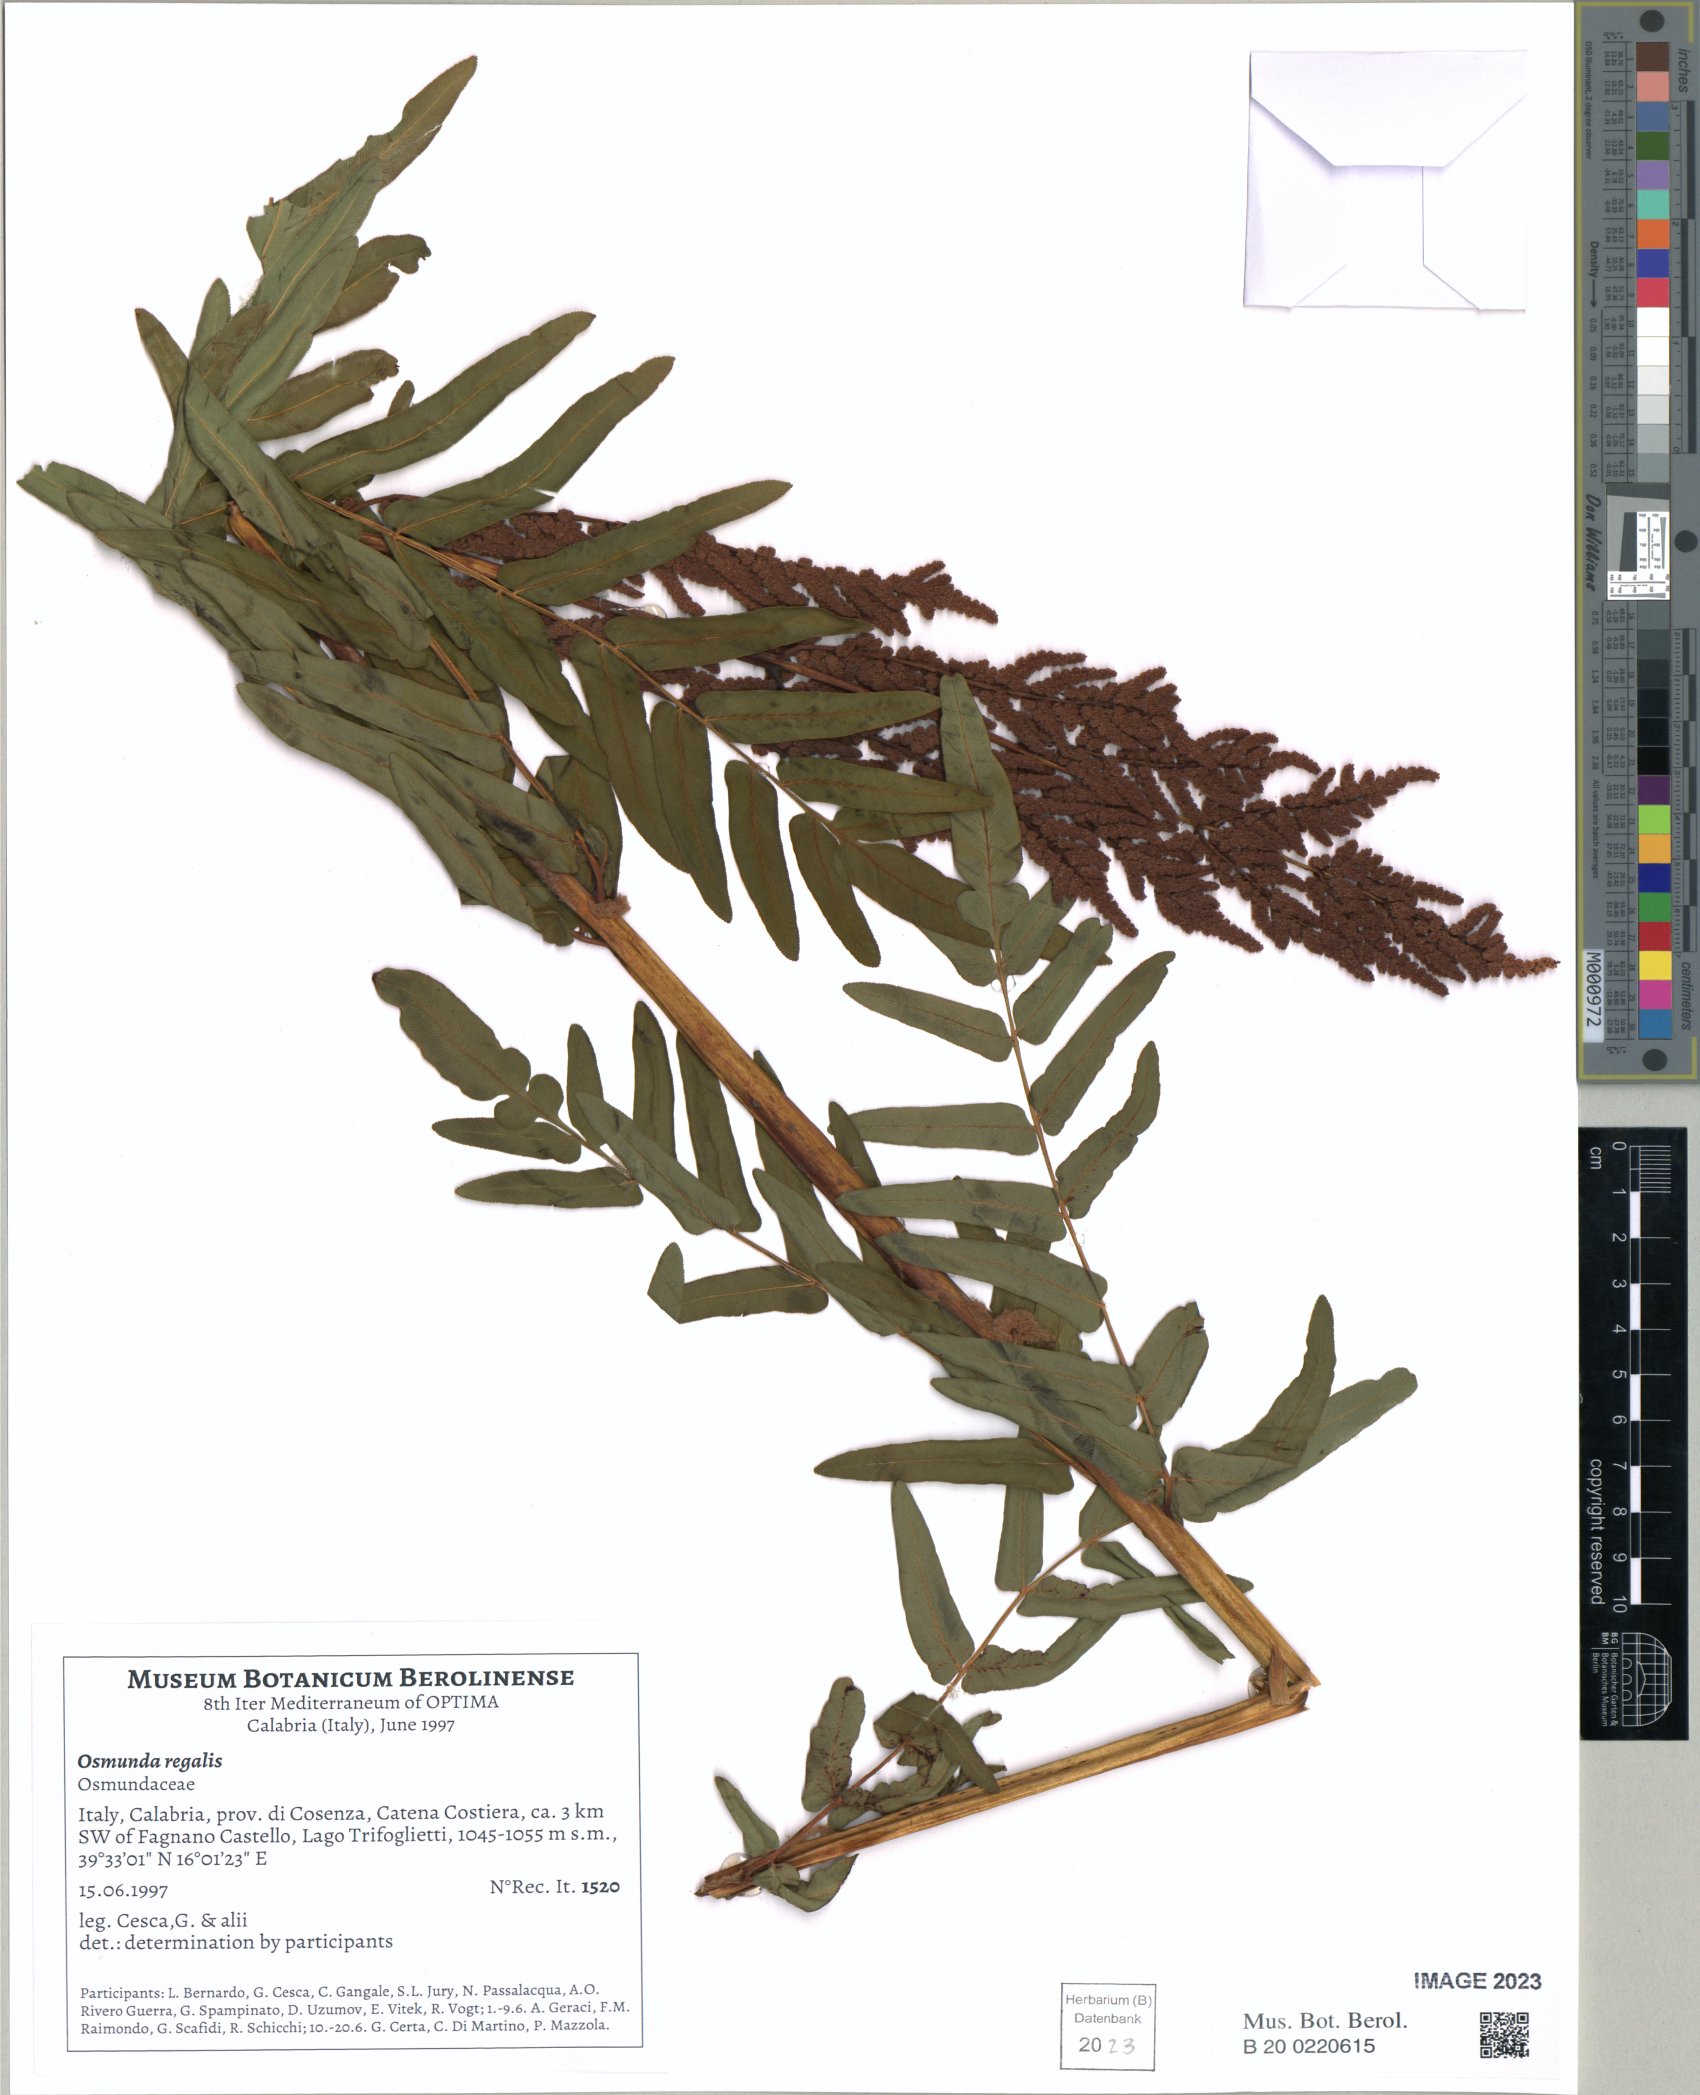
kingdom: Plantae
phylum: Tracheophyta
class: Polypodiopsida
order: Osmundales
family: Osmundaceae
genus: Osmunda
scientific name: Osmunda regalis
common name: Royal fern
